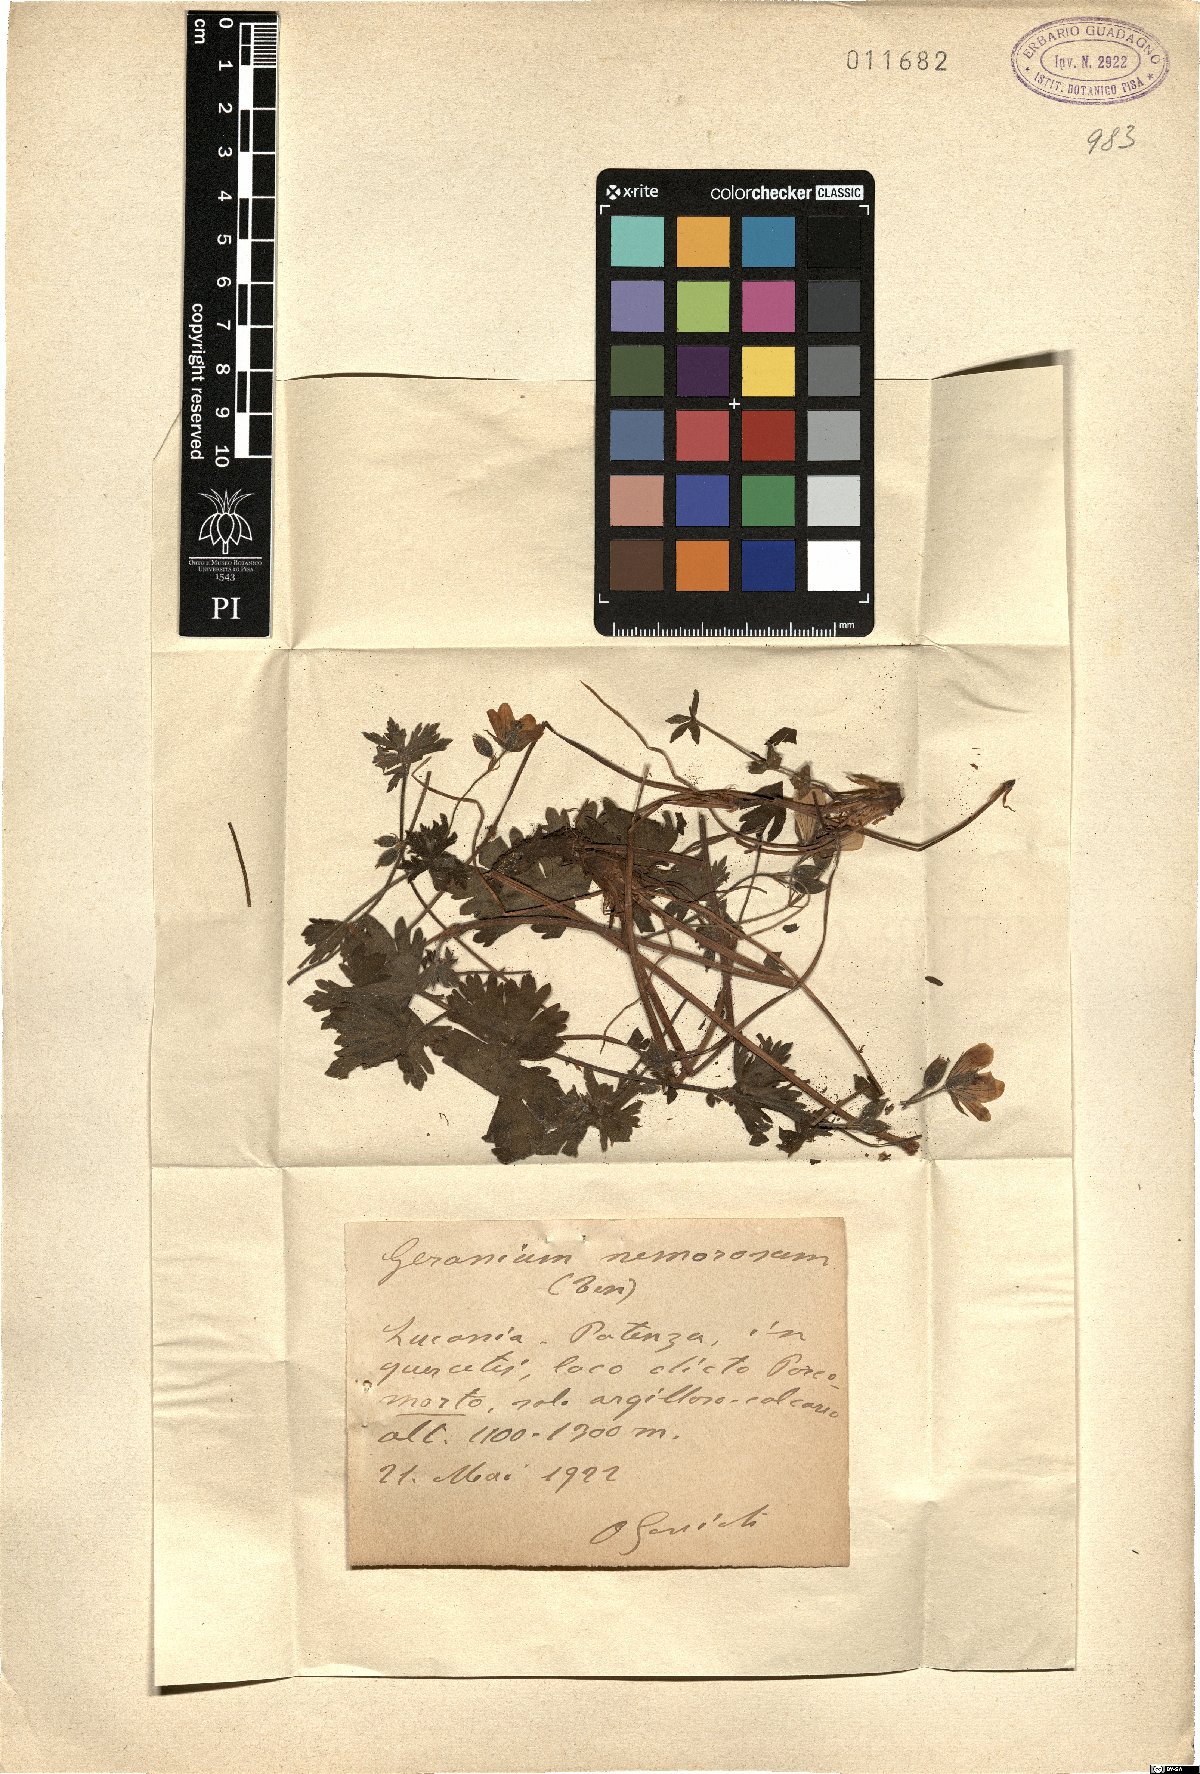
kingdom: Plantae
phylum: Tracheophyta
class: Magnoliopsida
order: Geraniales
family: Geraniaceae
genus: Geranium
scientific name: Geranium asphodeloides
